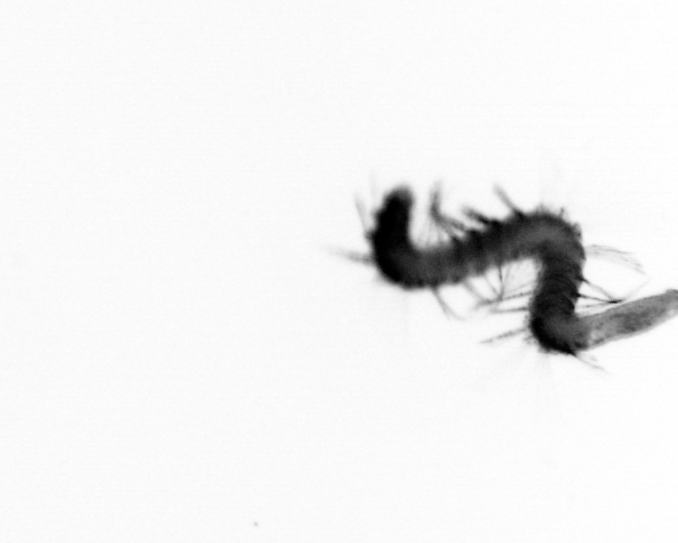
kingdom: Animalia
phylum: Annelida
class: Polychaeta
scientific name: Polychaeta
